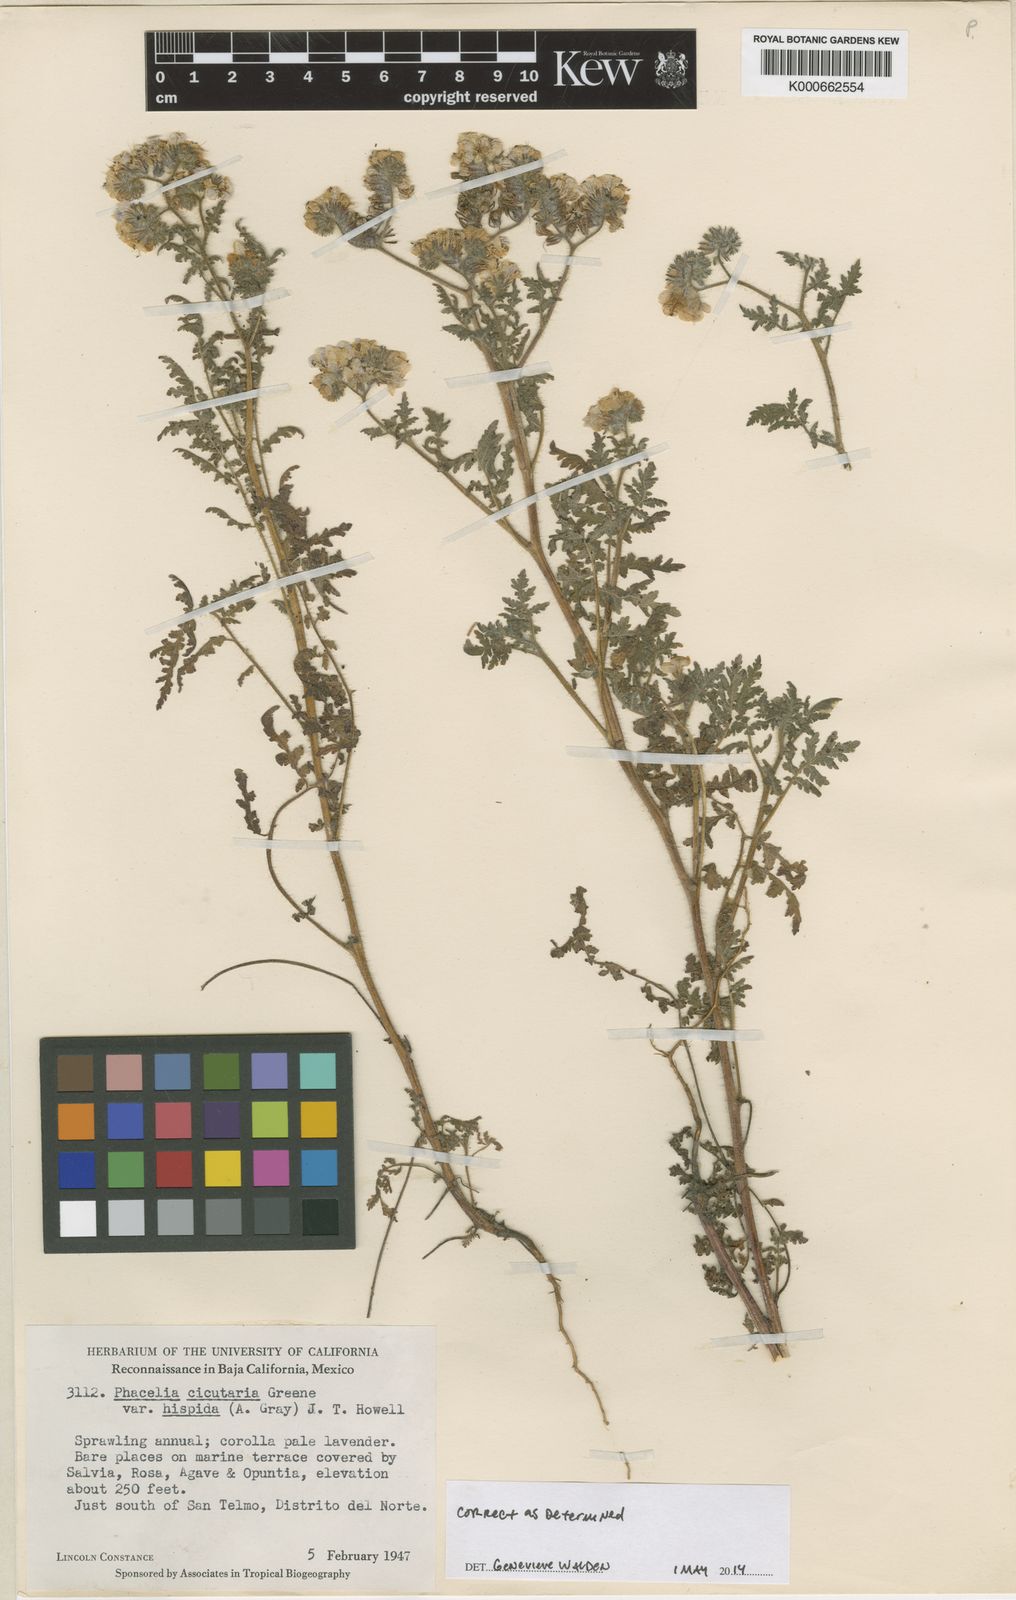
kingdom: Plantae
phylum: Tracheophyta
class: Magnoliopsida
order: Boraginales
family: Hydrophyllaceae
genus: Phacelia
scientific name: Phacelia cicutaria
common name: Caterpillar phacelia
